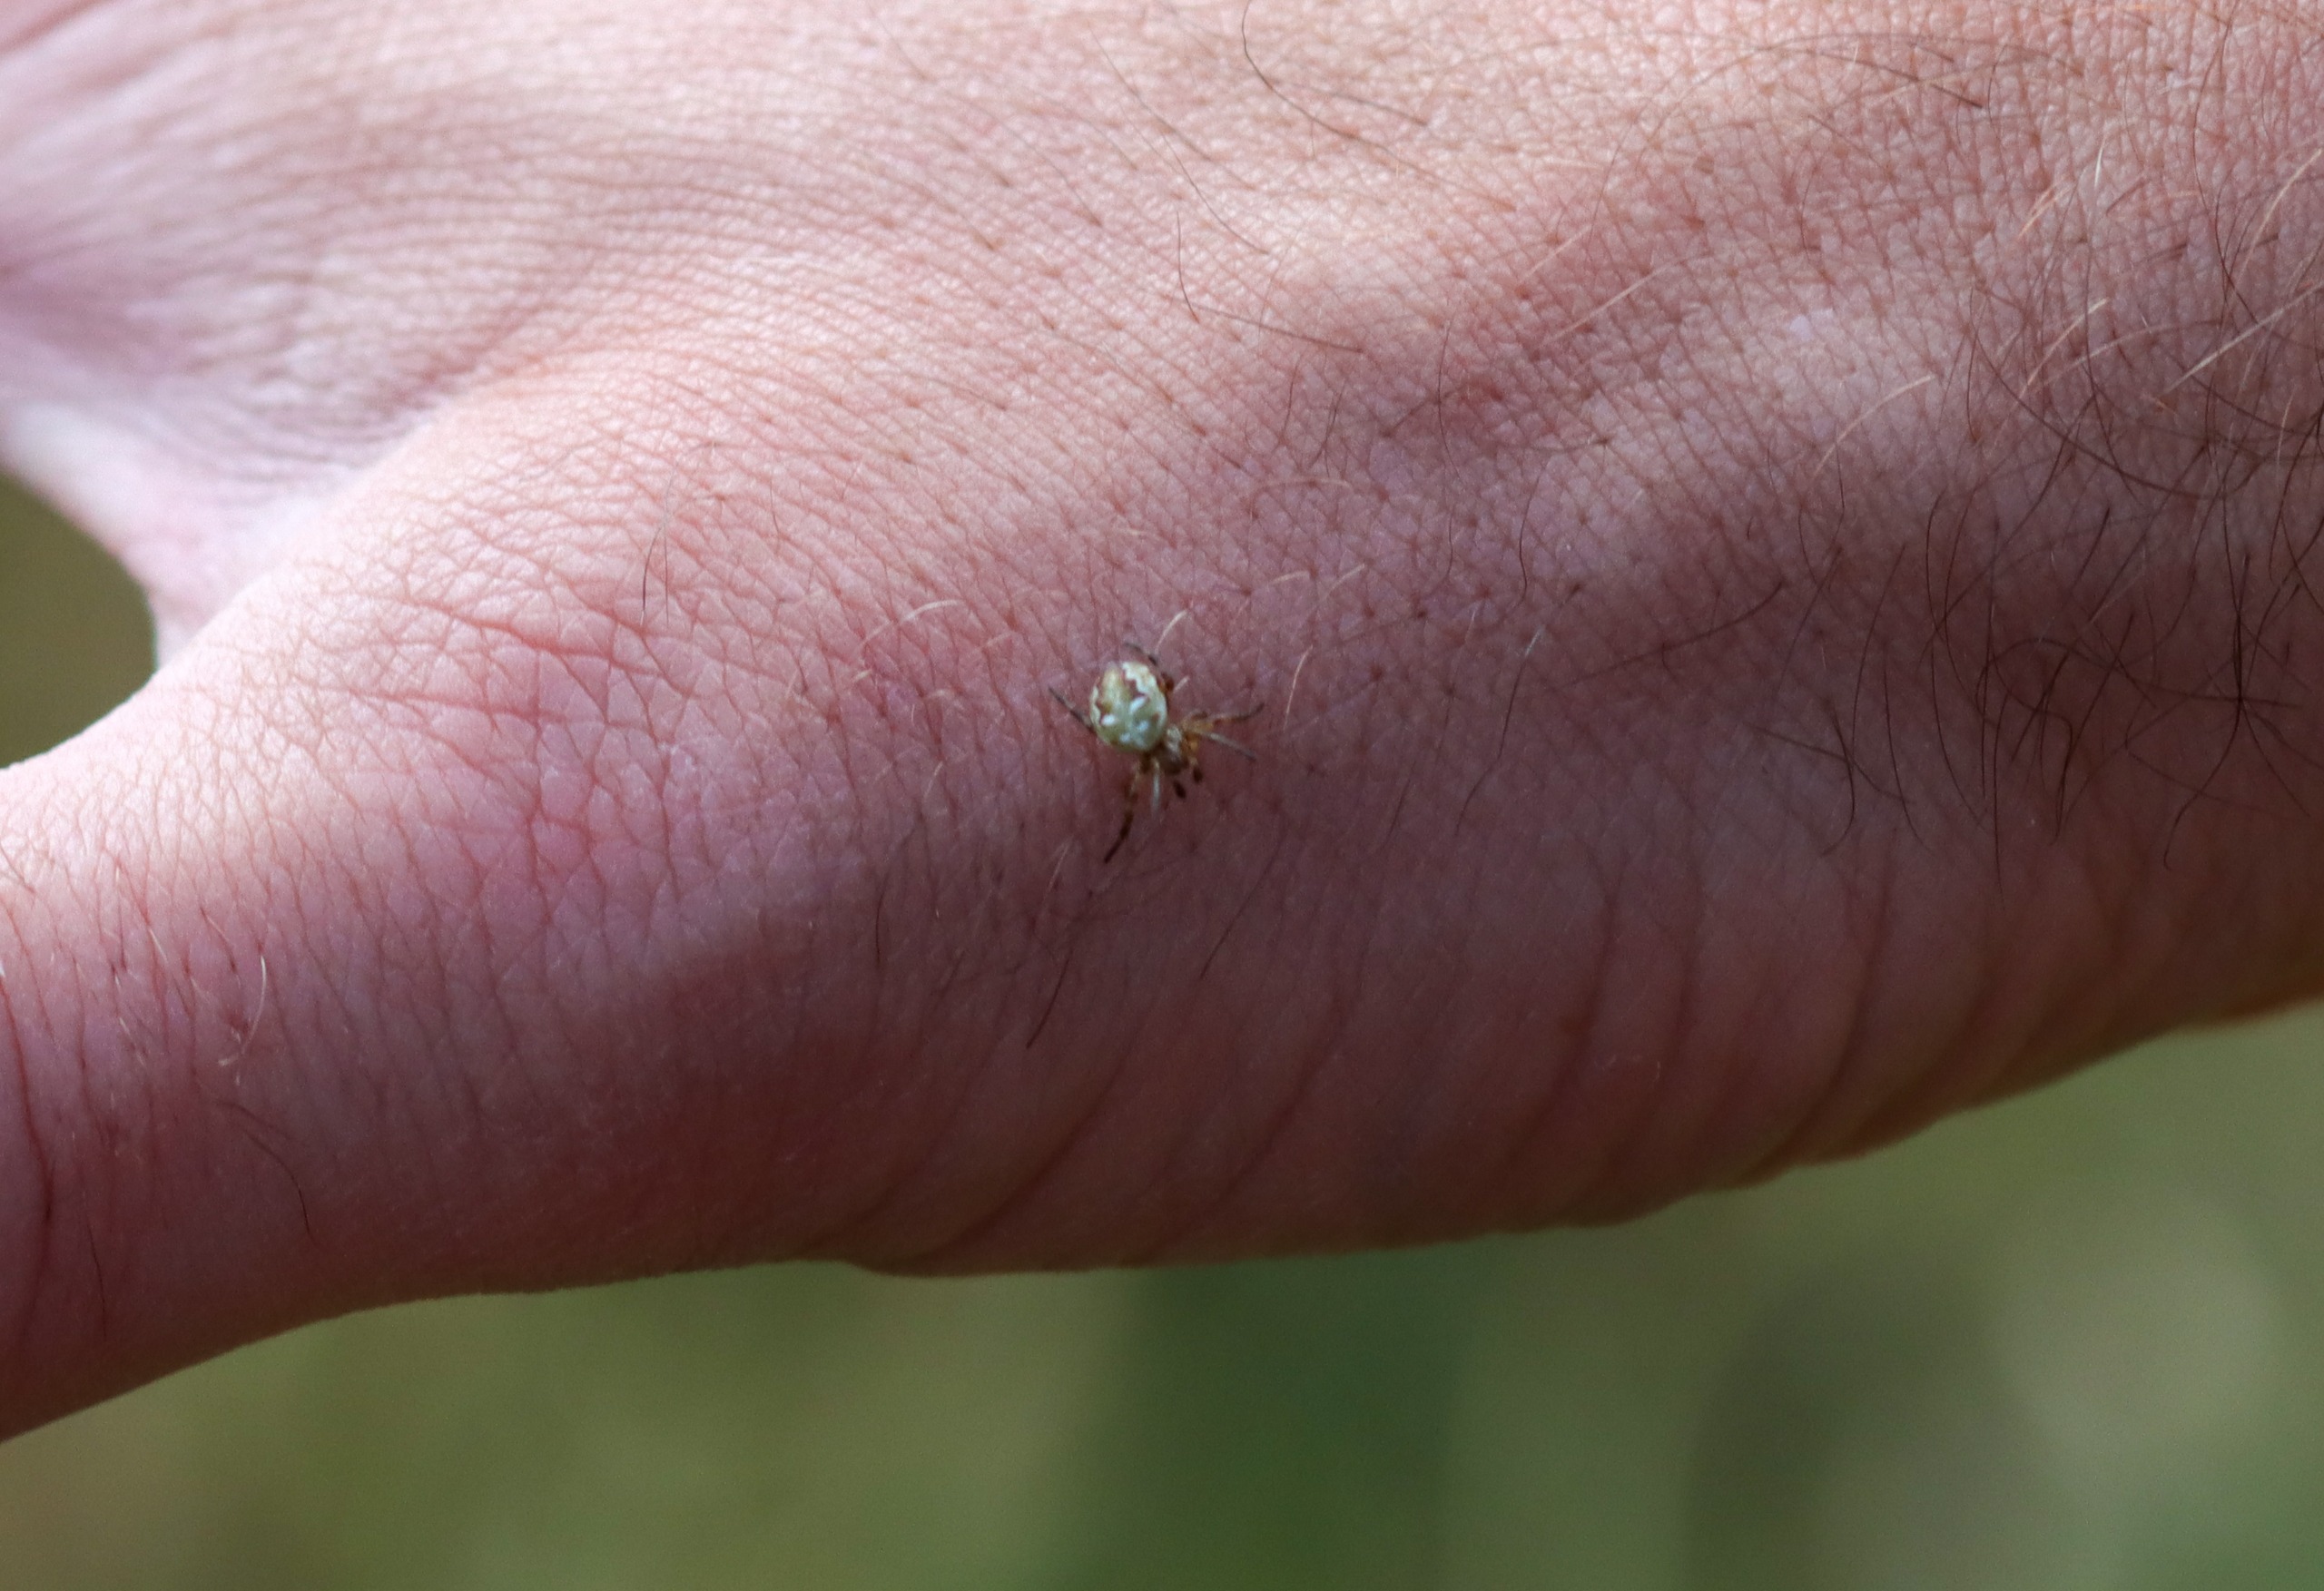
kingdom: Animalia
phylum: Arthropoda
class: Arachnida
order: Araneae
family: Araneidae
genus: Araneus
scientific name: Araneus quadratus
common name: Kvadratedderkop
